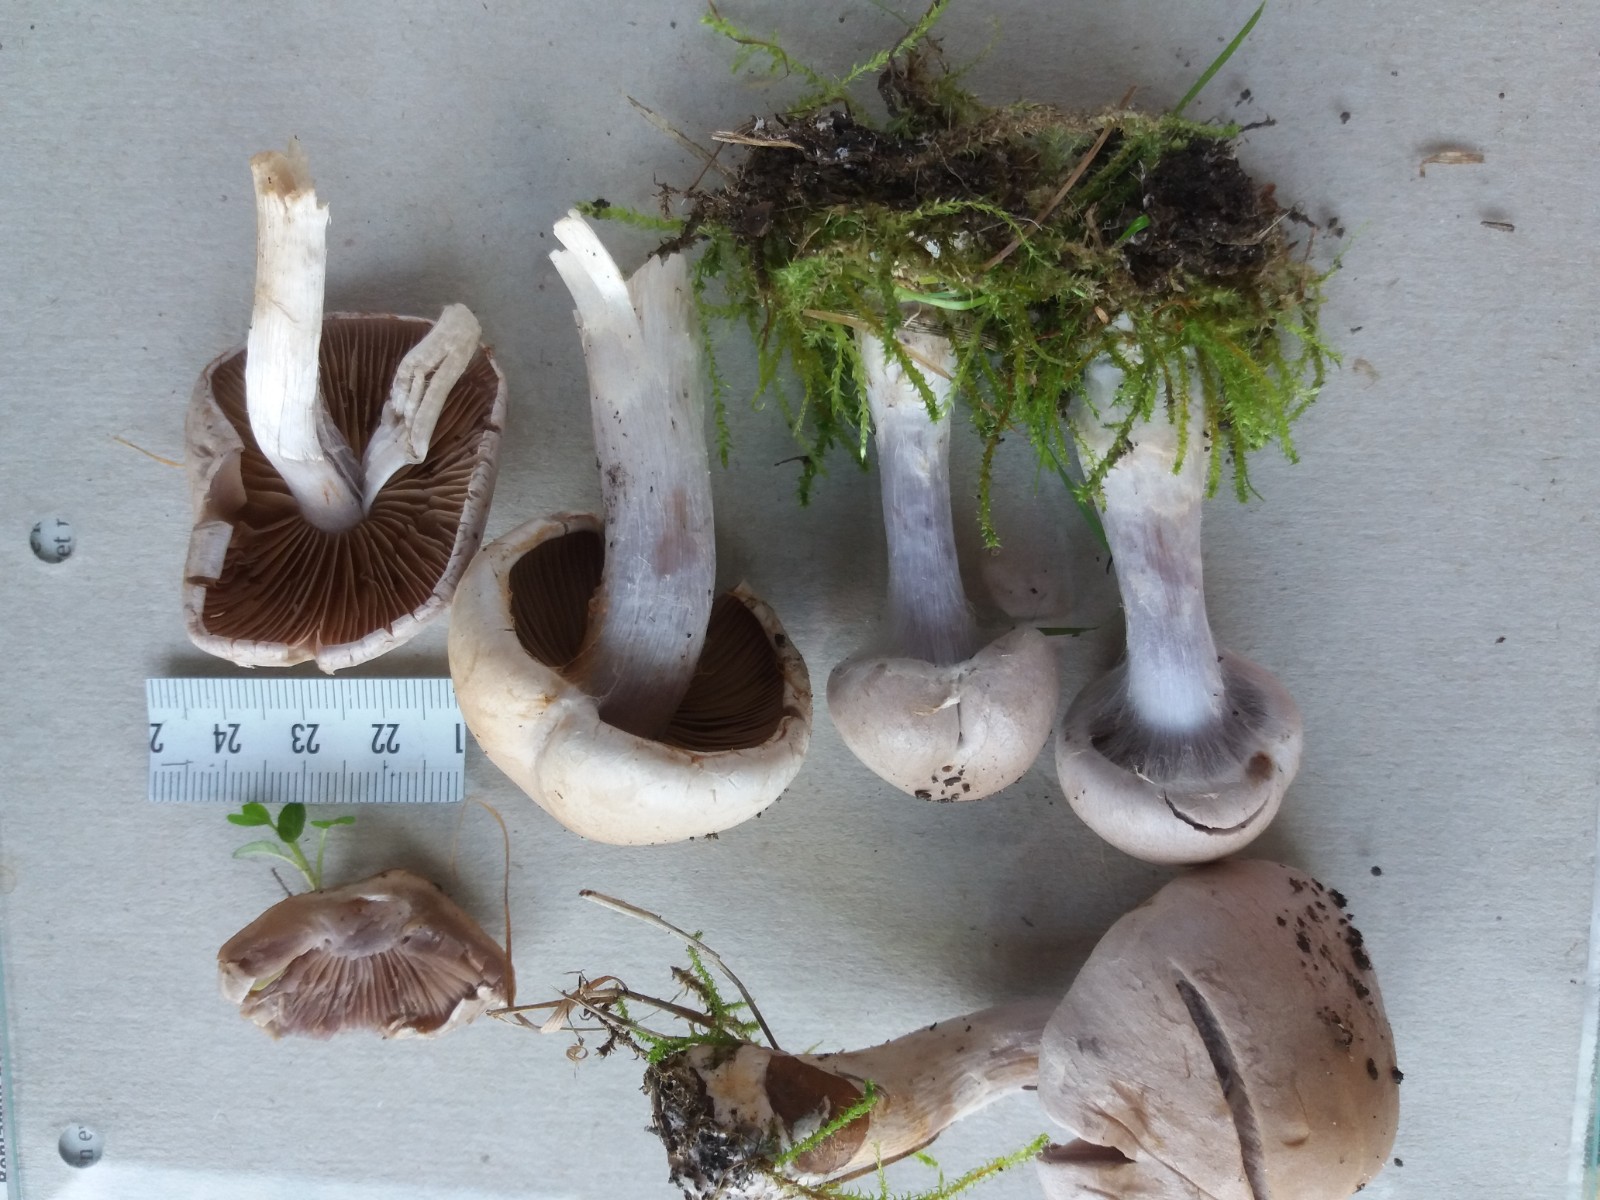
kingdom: Fungi
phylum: Basidiomycota
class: Agaricomycetes
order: Agaricales
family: Cortinariaceae
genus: Cortinarius
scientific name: Cortinarius
